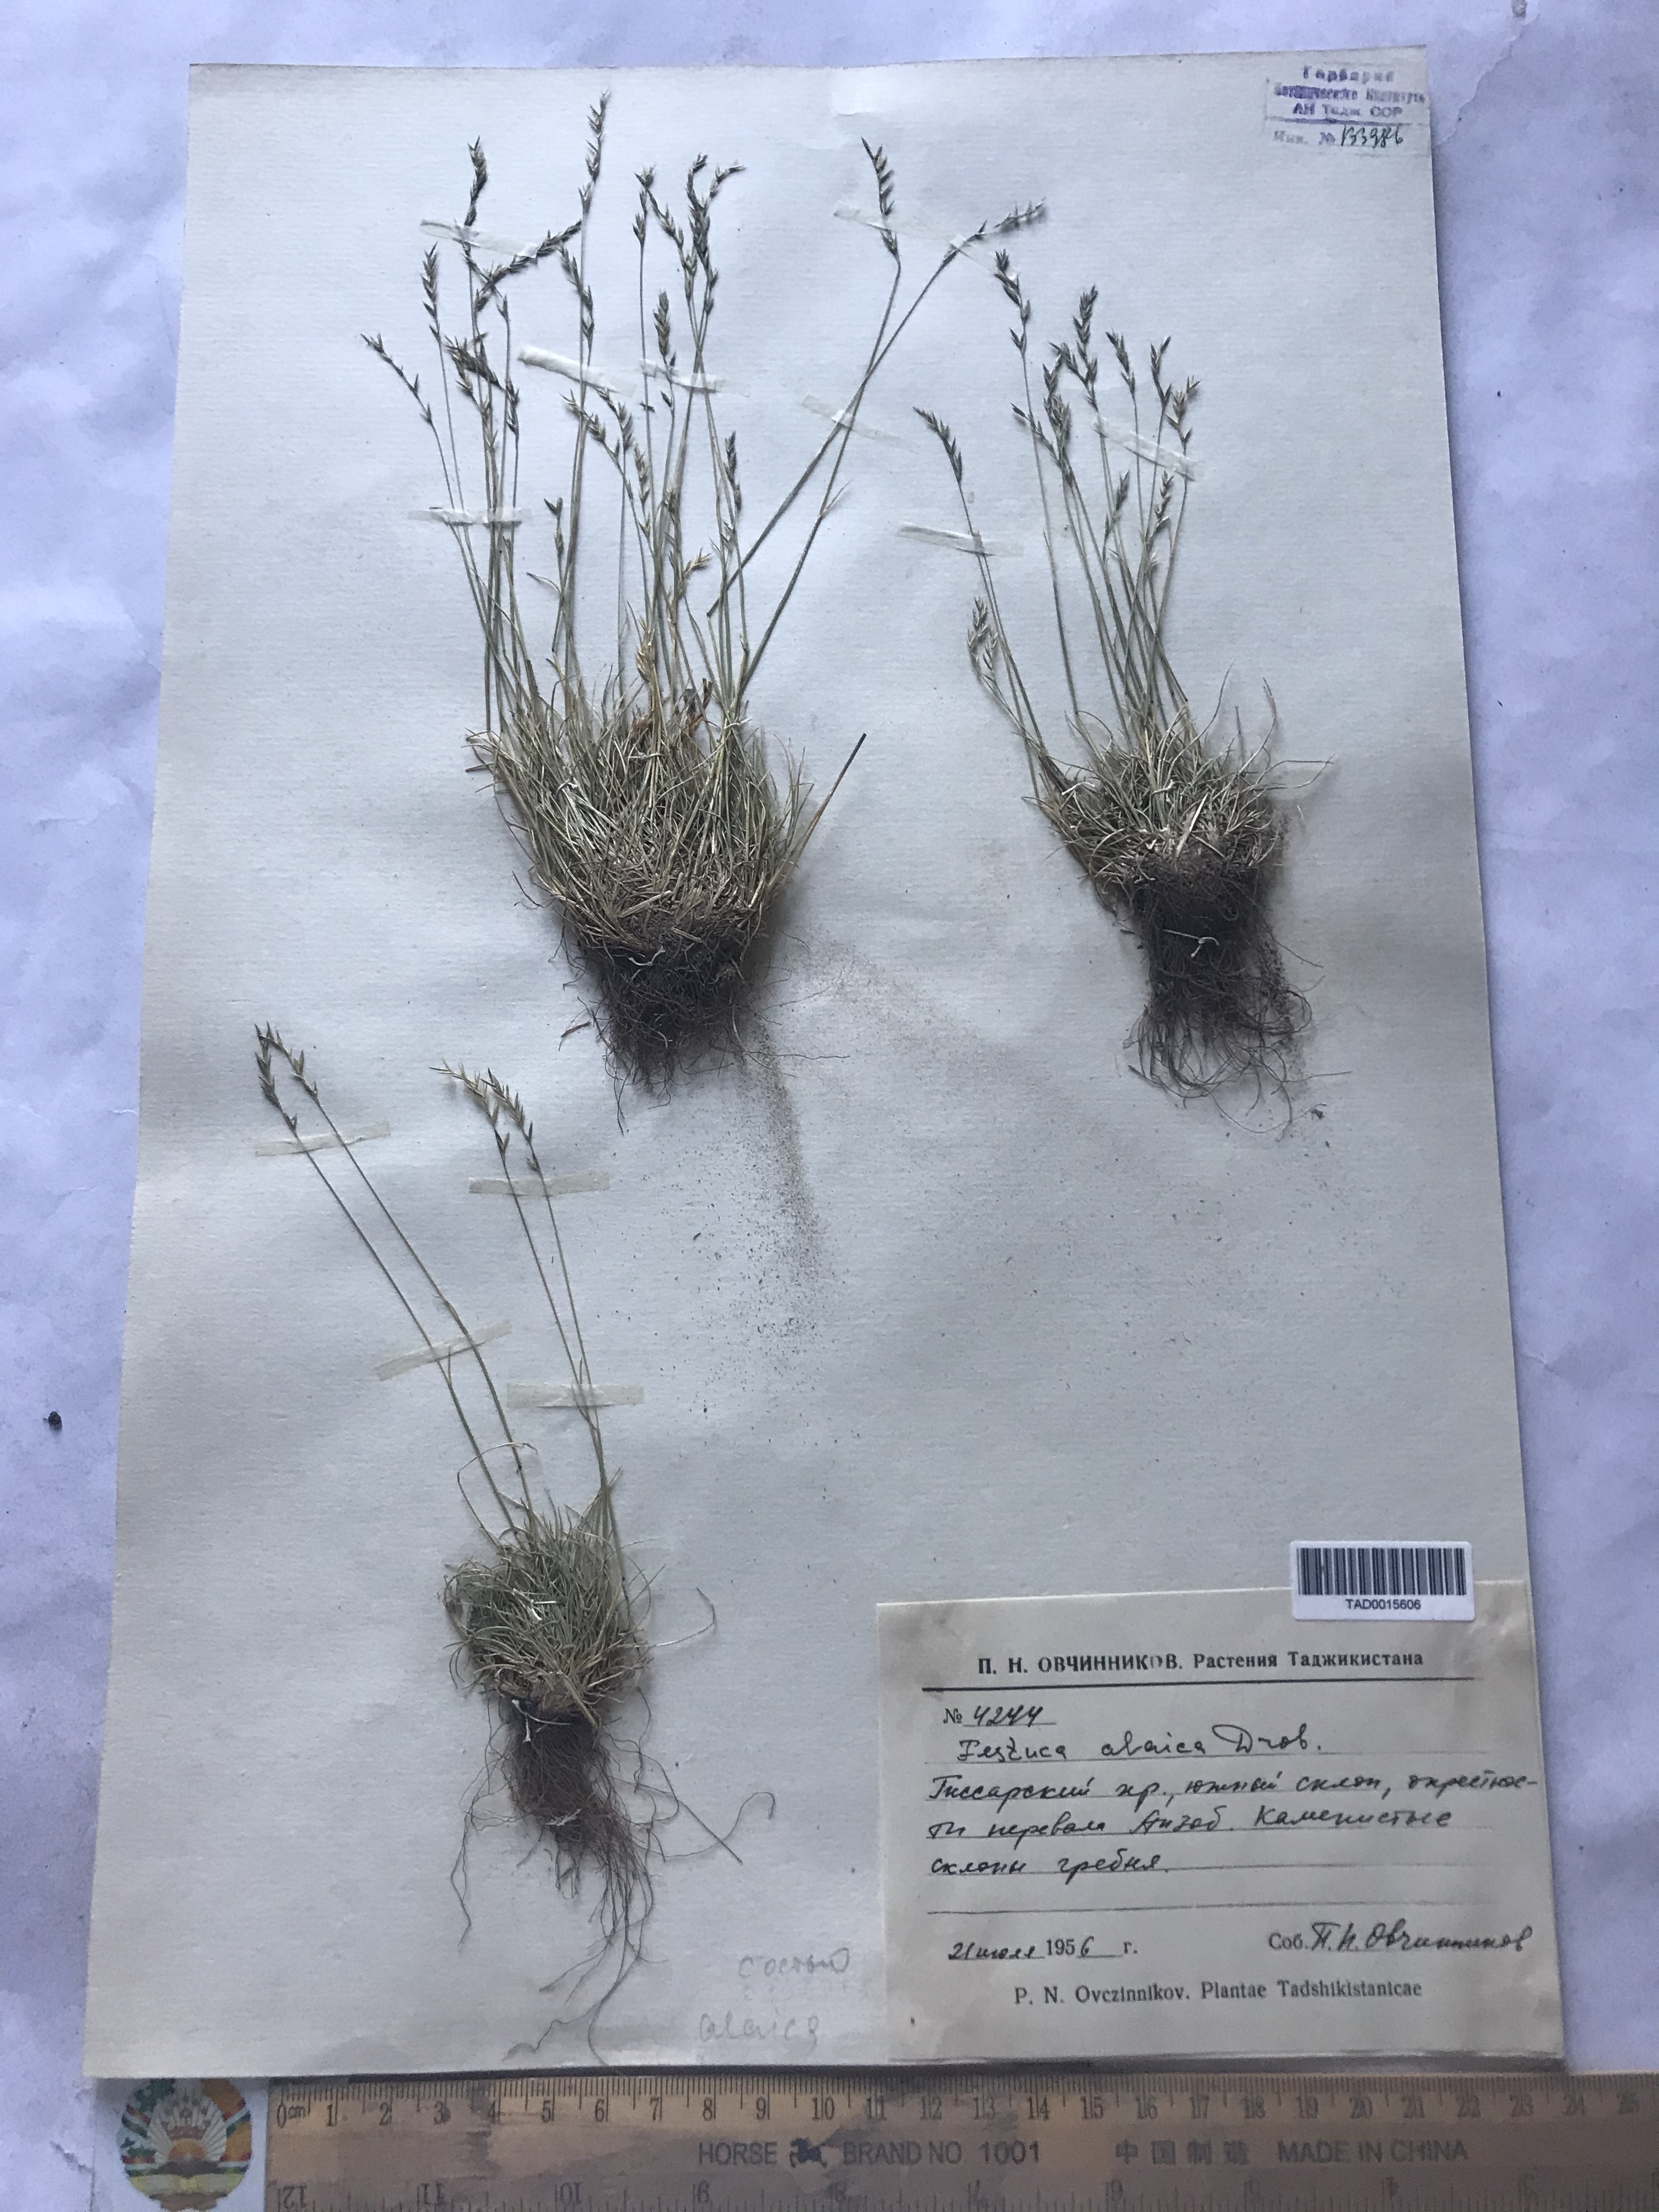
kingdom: Plantae
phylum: Tracheophyta
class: Liliopsida
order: Poales
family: Poaceae
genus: Festuca
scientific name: Festuca alaica
